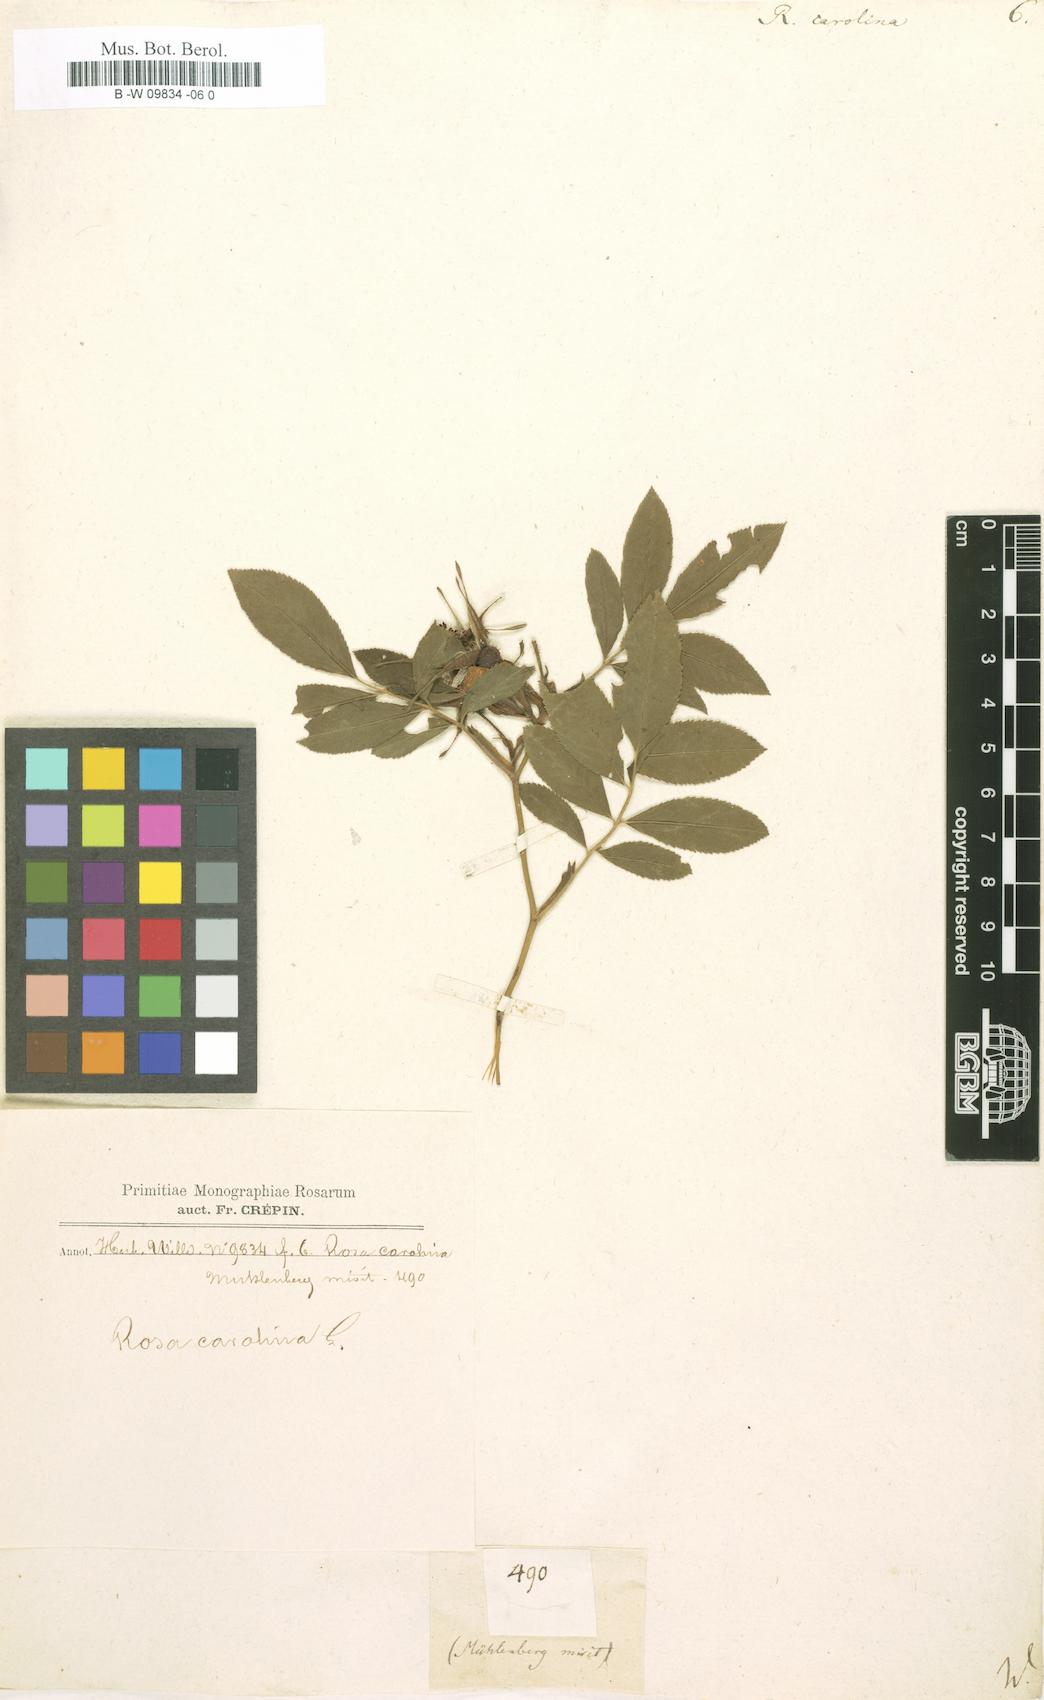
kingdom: Plantae
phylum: Tracheophyta
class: Magnoliopsida
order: Rosales
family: Rosaceae
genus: Rosa
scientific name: Rosa carolina
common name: Pasture rose
